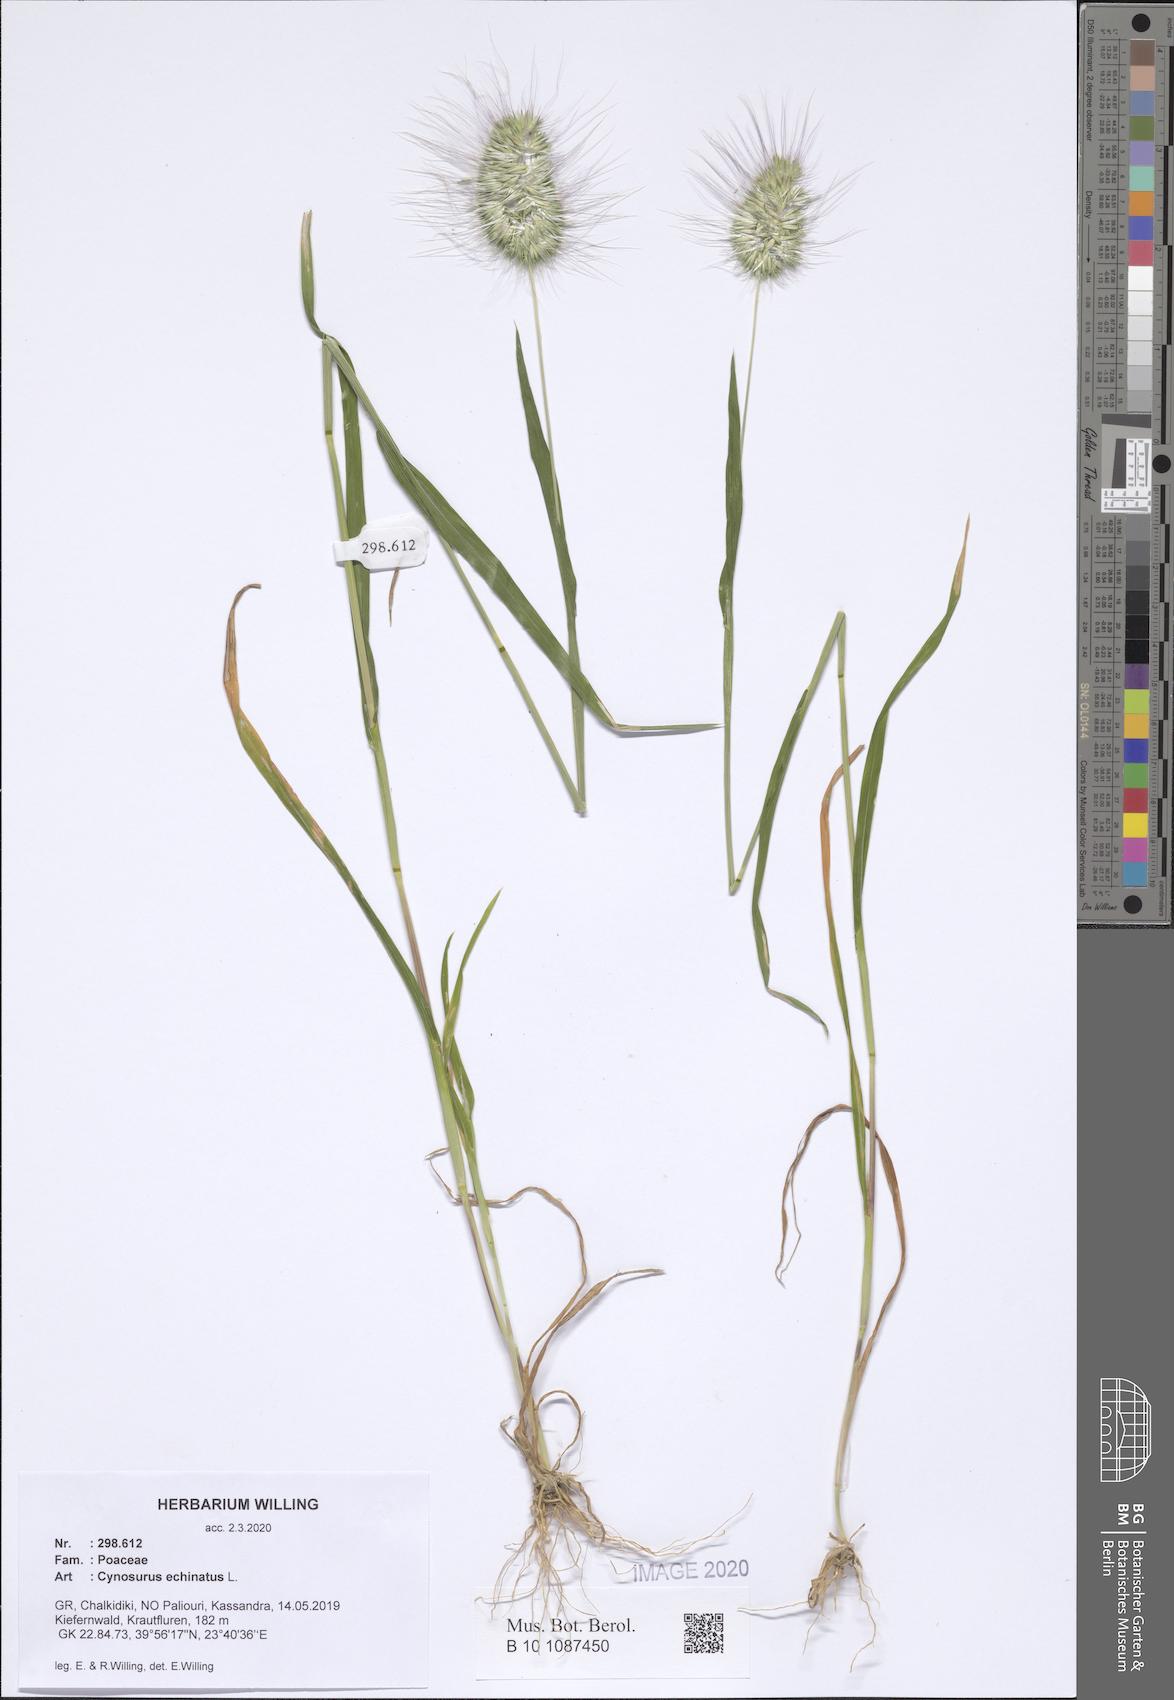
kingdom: Plantae
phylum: Tracheophyta
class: Liliopsida
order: Poales
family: Poaceae
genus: Cynosurus
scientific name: Cynosurus echinatus
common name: Rough dog's-tail
